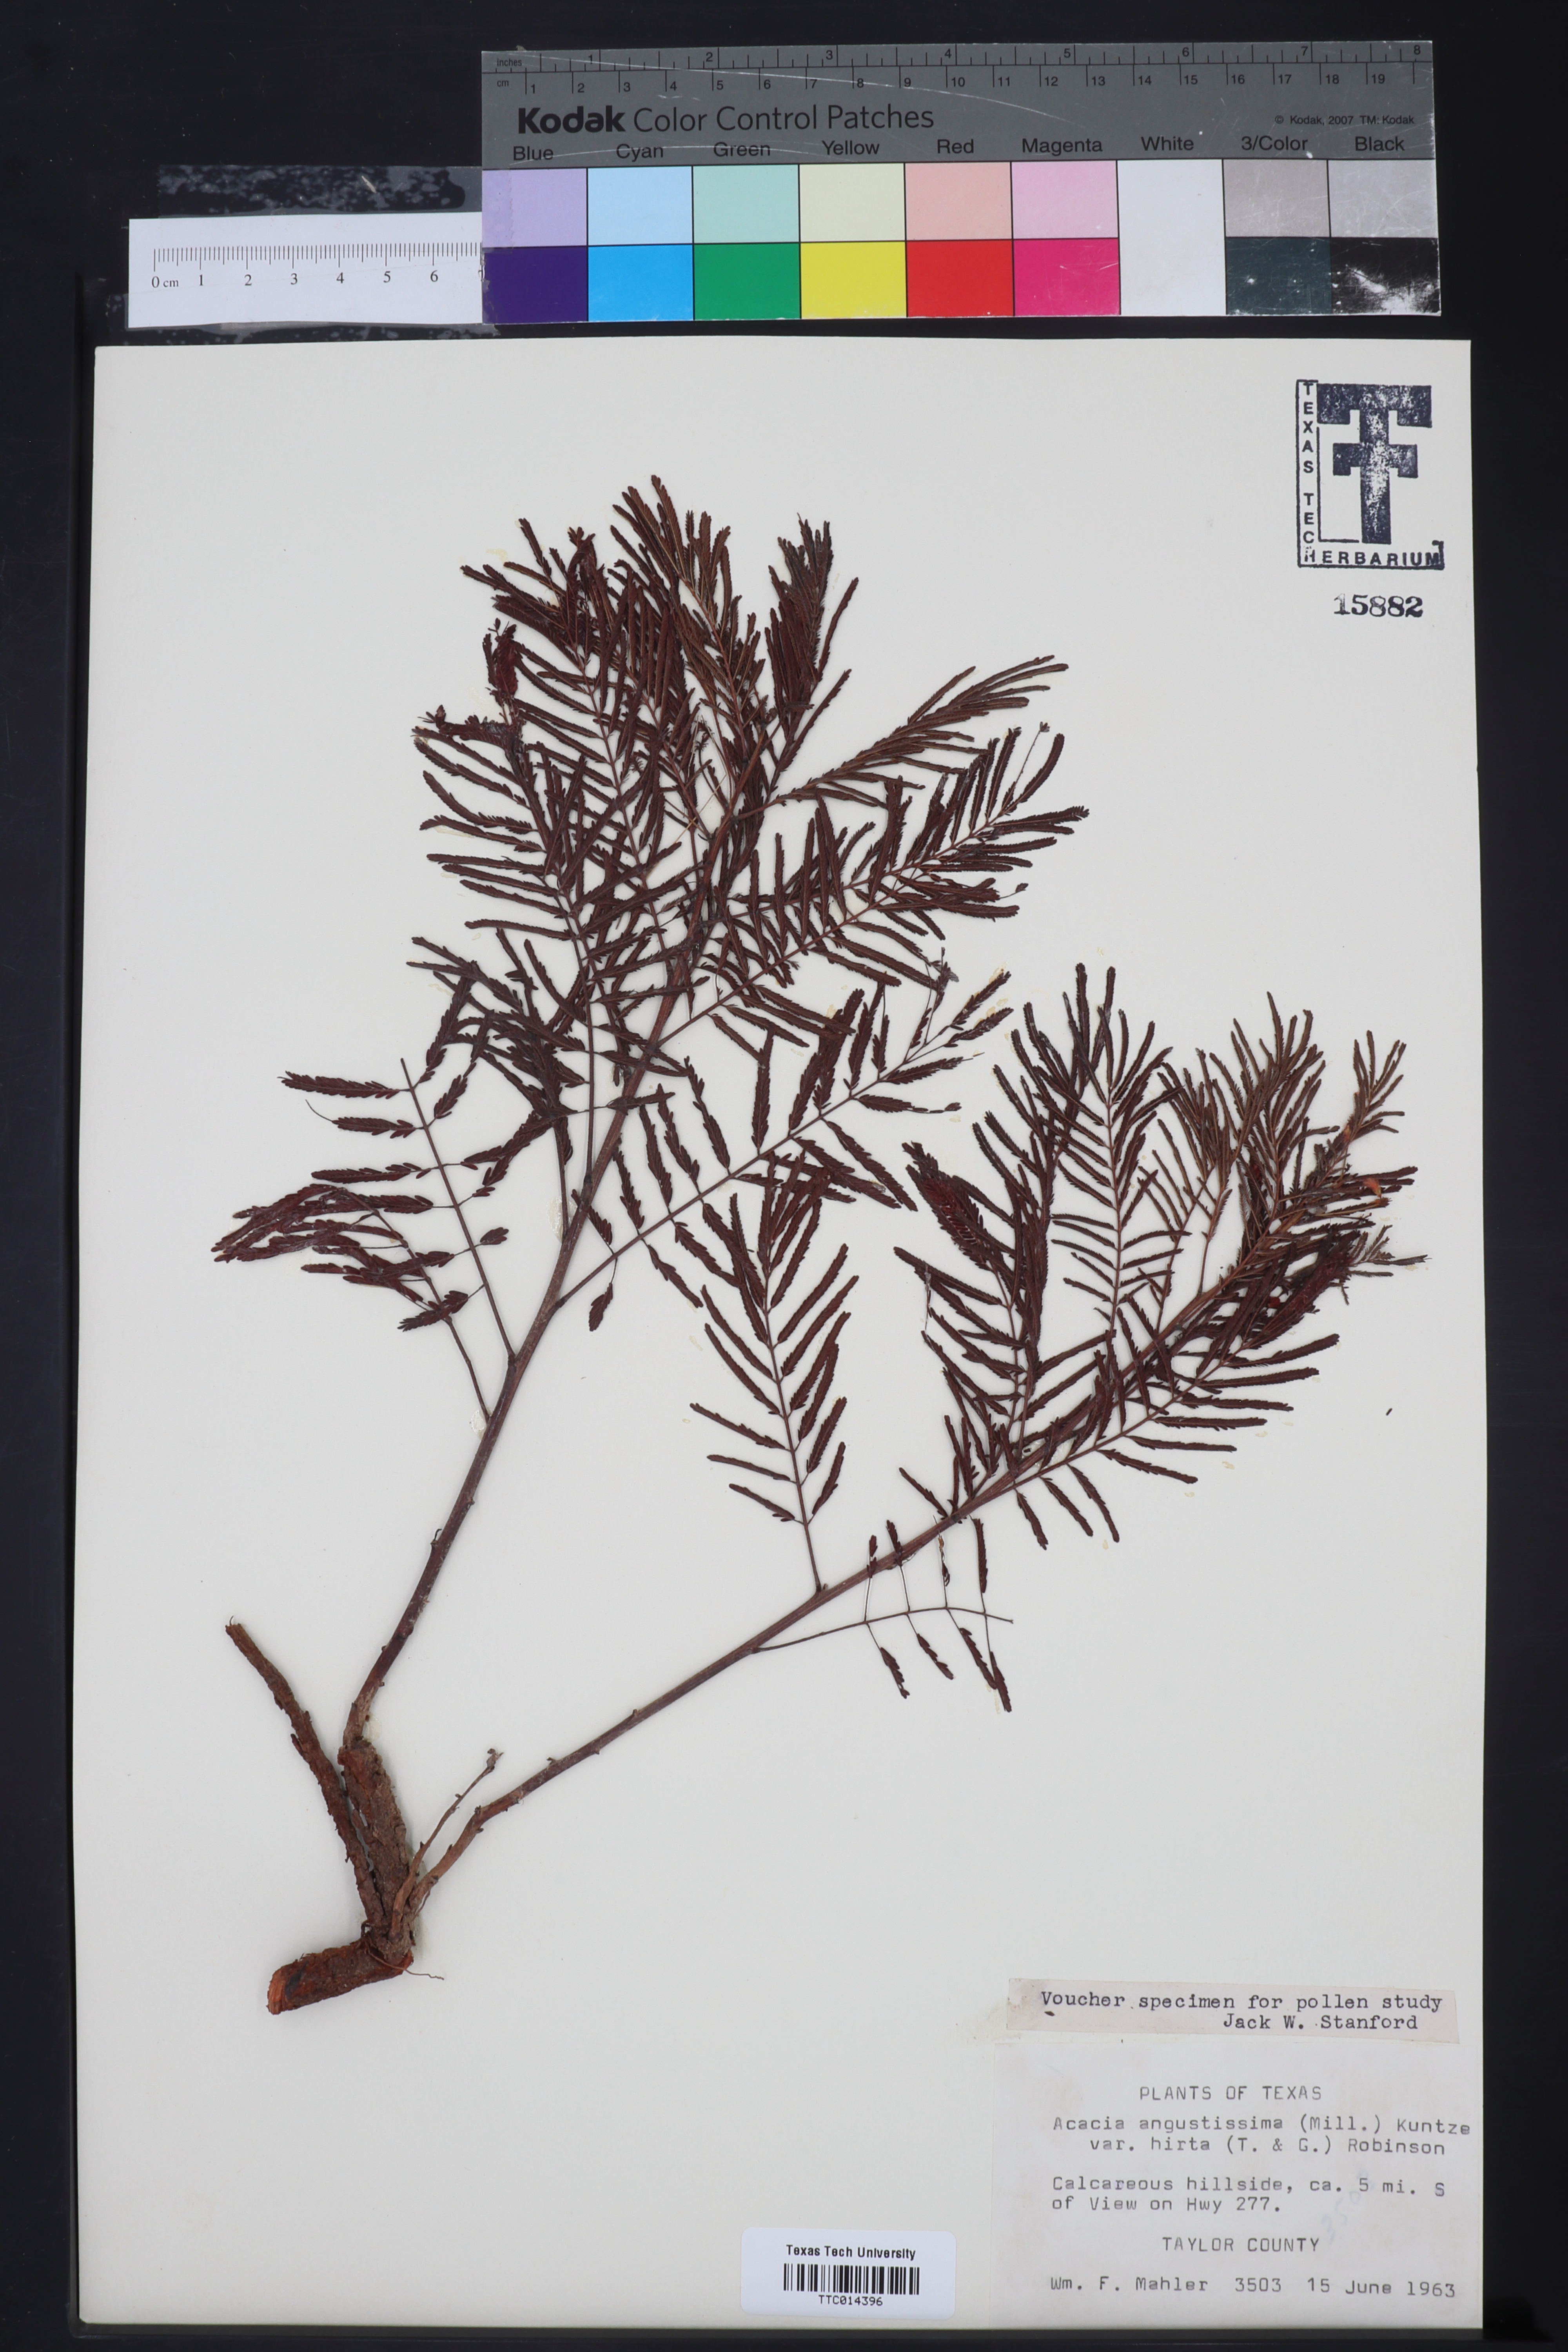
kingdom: Plantae
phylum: Tracheophyta
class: Magnoliopsida
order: Fabales
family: Fabaceae
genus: Acaciella
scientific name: Acaciella angustissima
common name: Prairie acacia
